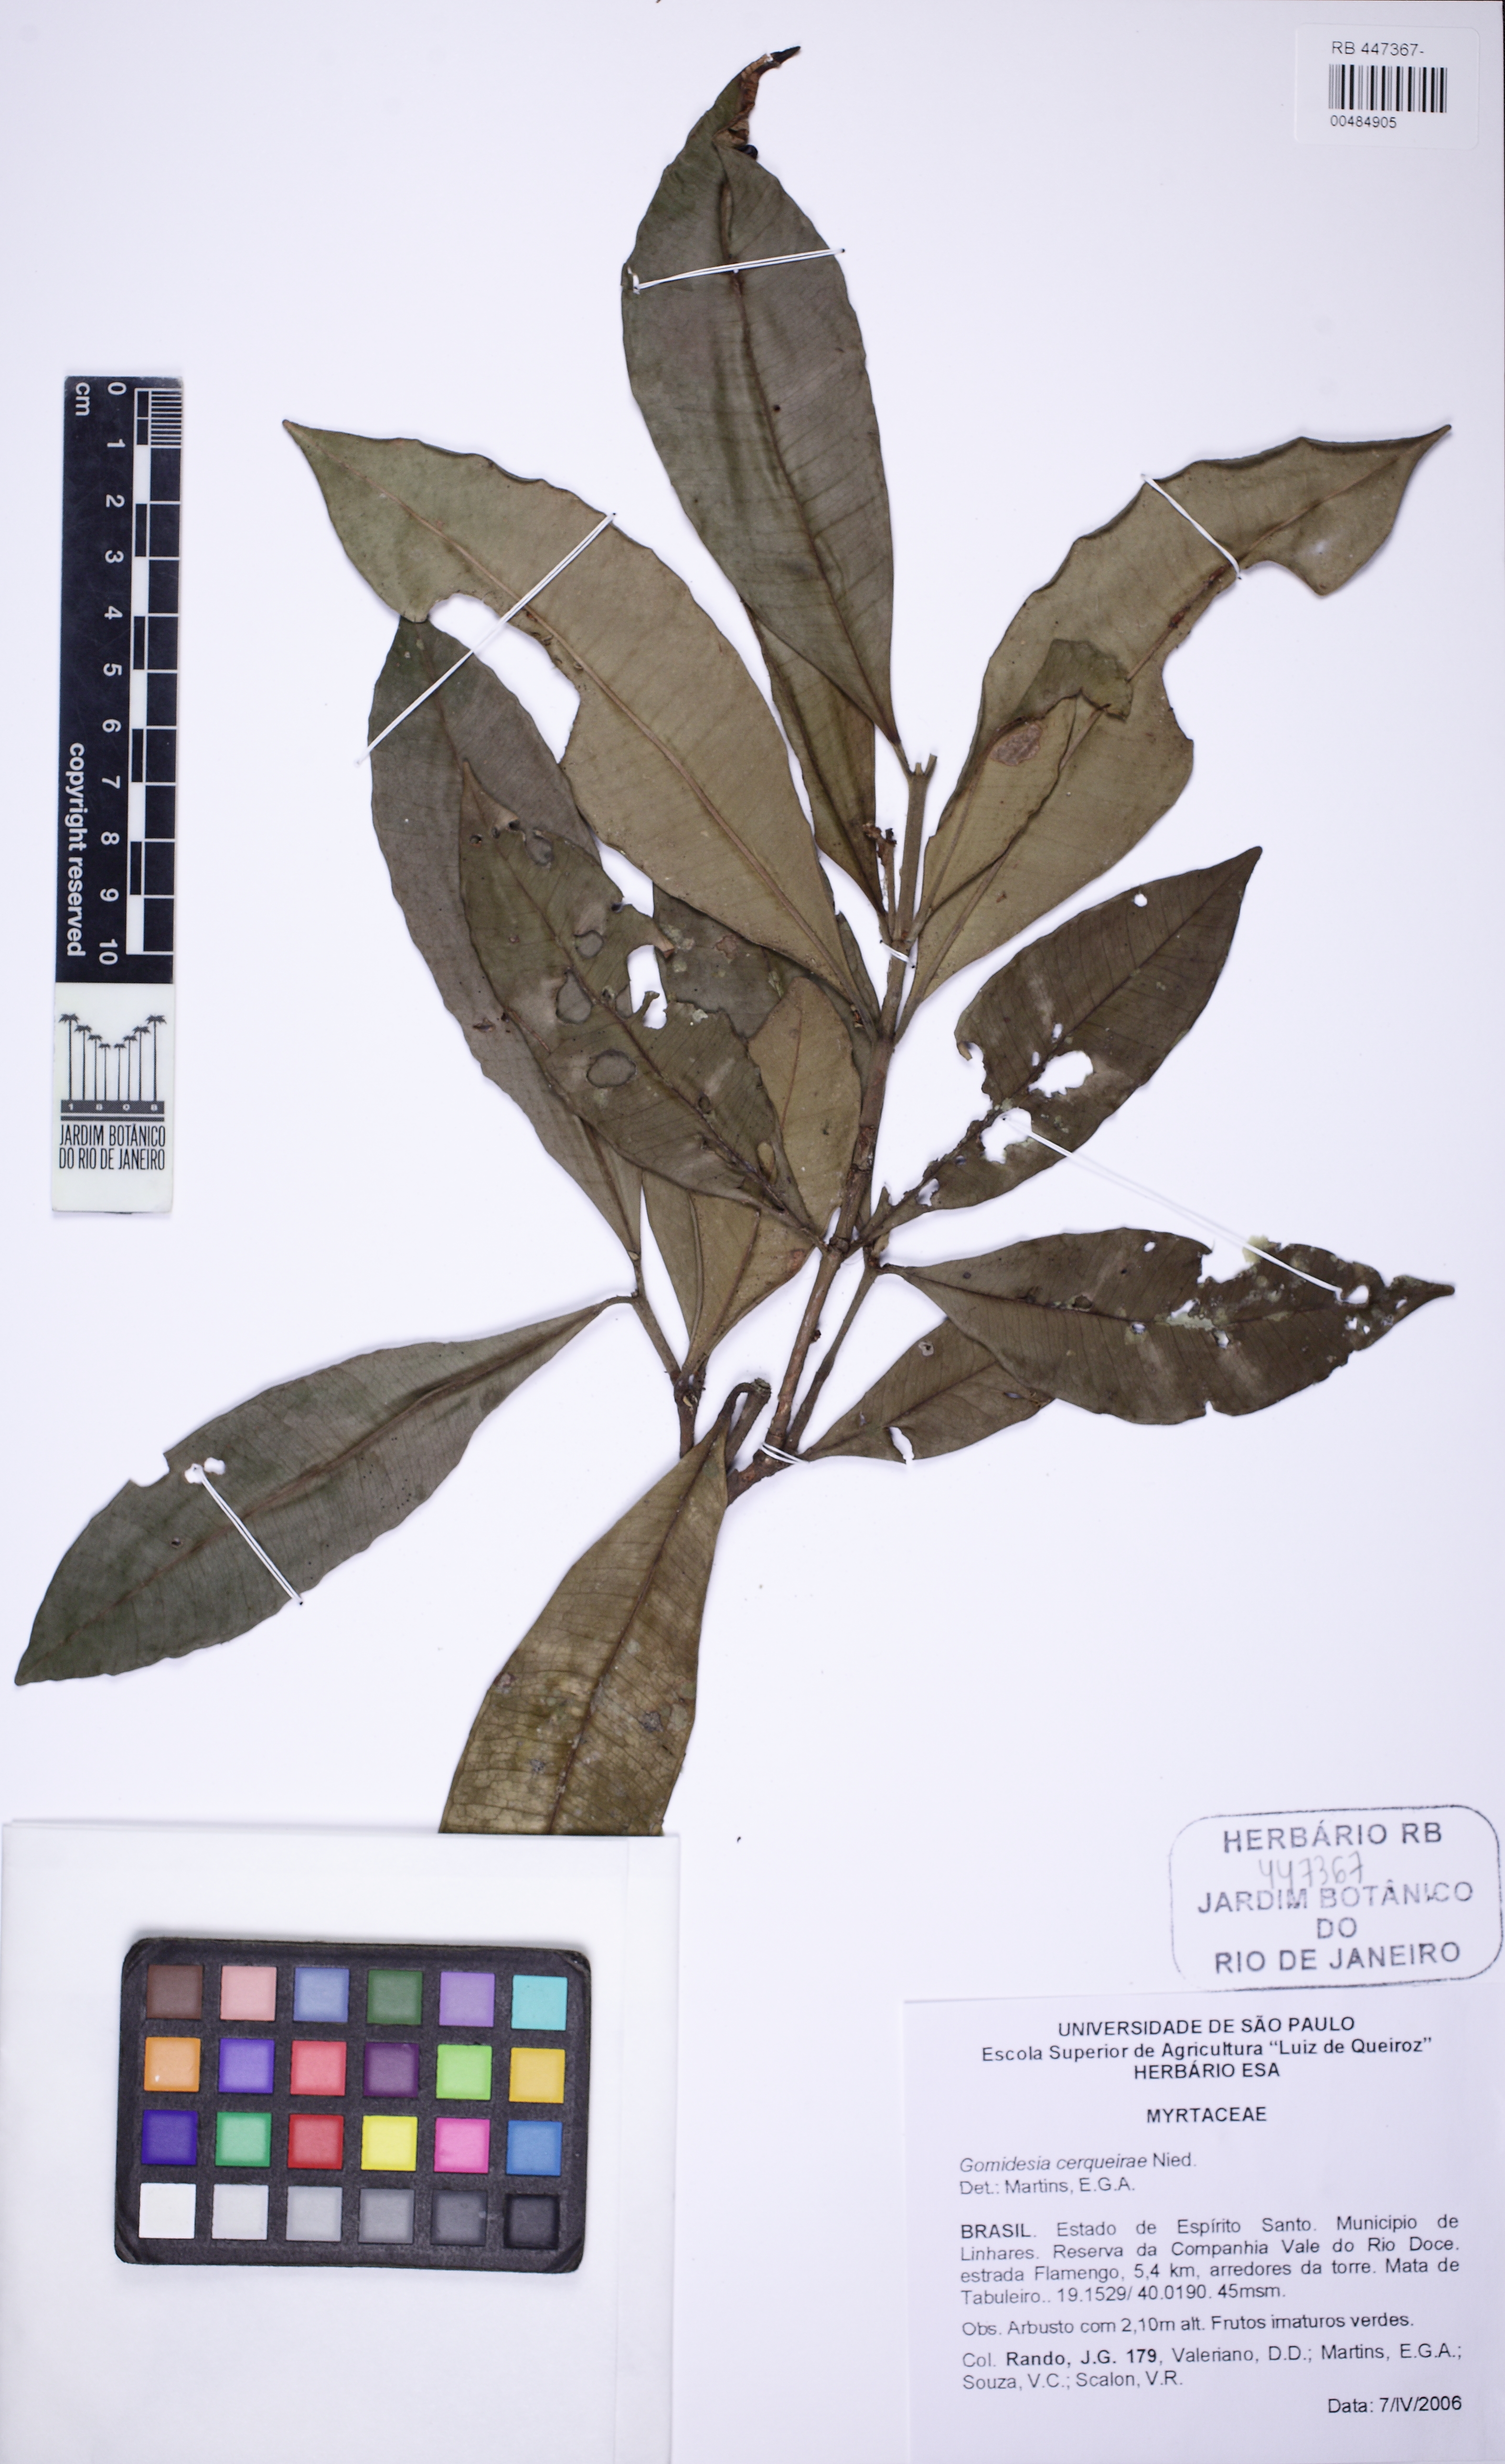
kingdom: Plantae
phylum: Tracheophyta
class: Magnoliopsida
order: Myrtales
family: Myrtaceae
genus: Myrcia
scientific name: Myrcia cerqueiria
